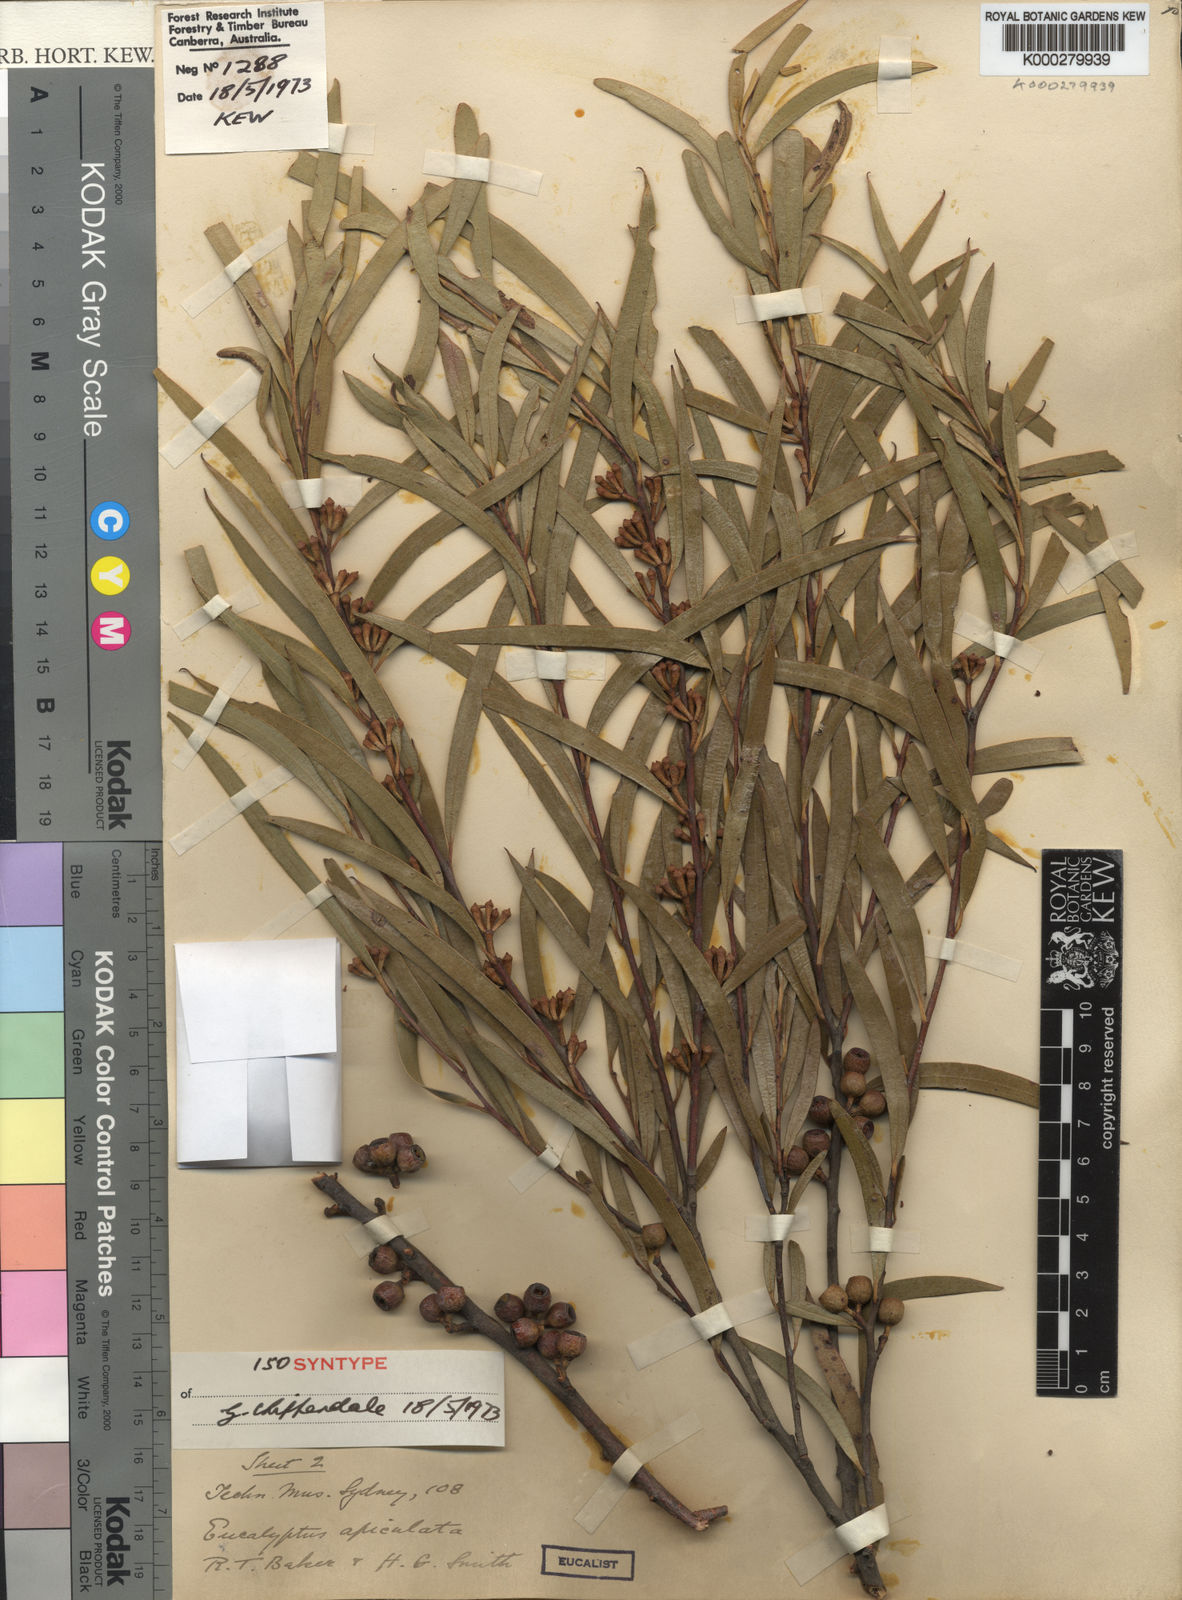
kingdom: Plantae
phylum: Tracheophyta
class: Magnoliopsida
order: Myrtales
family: Myrtaceae
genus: Eucalyptus
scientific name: Eucalyptus apiculata
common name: Narrow-leaf mallee-ash
